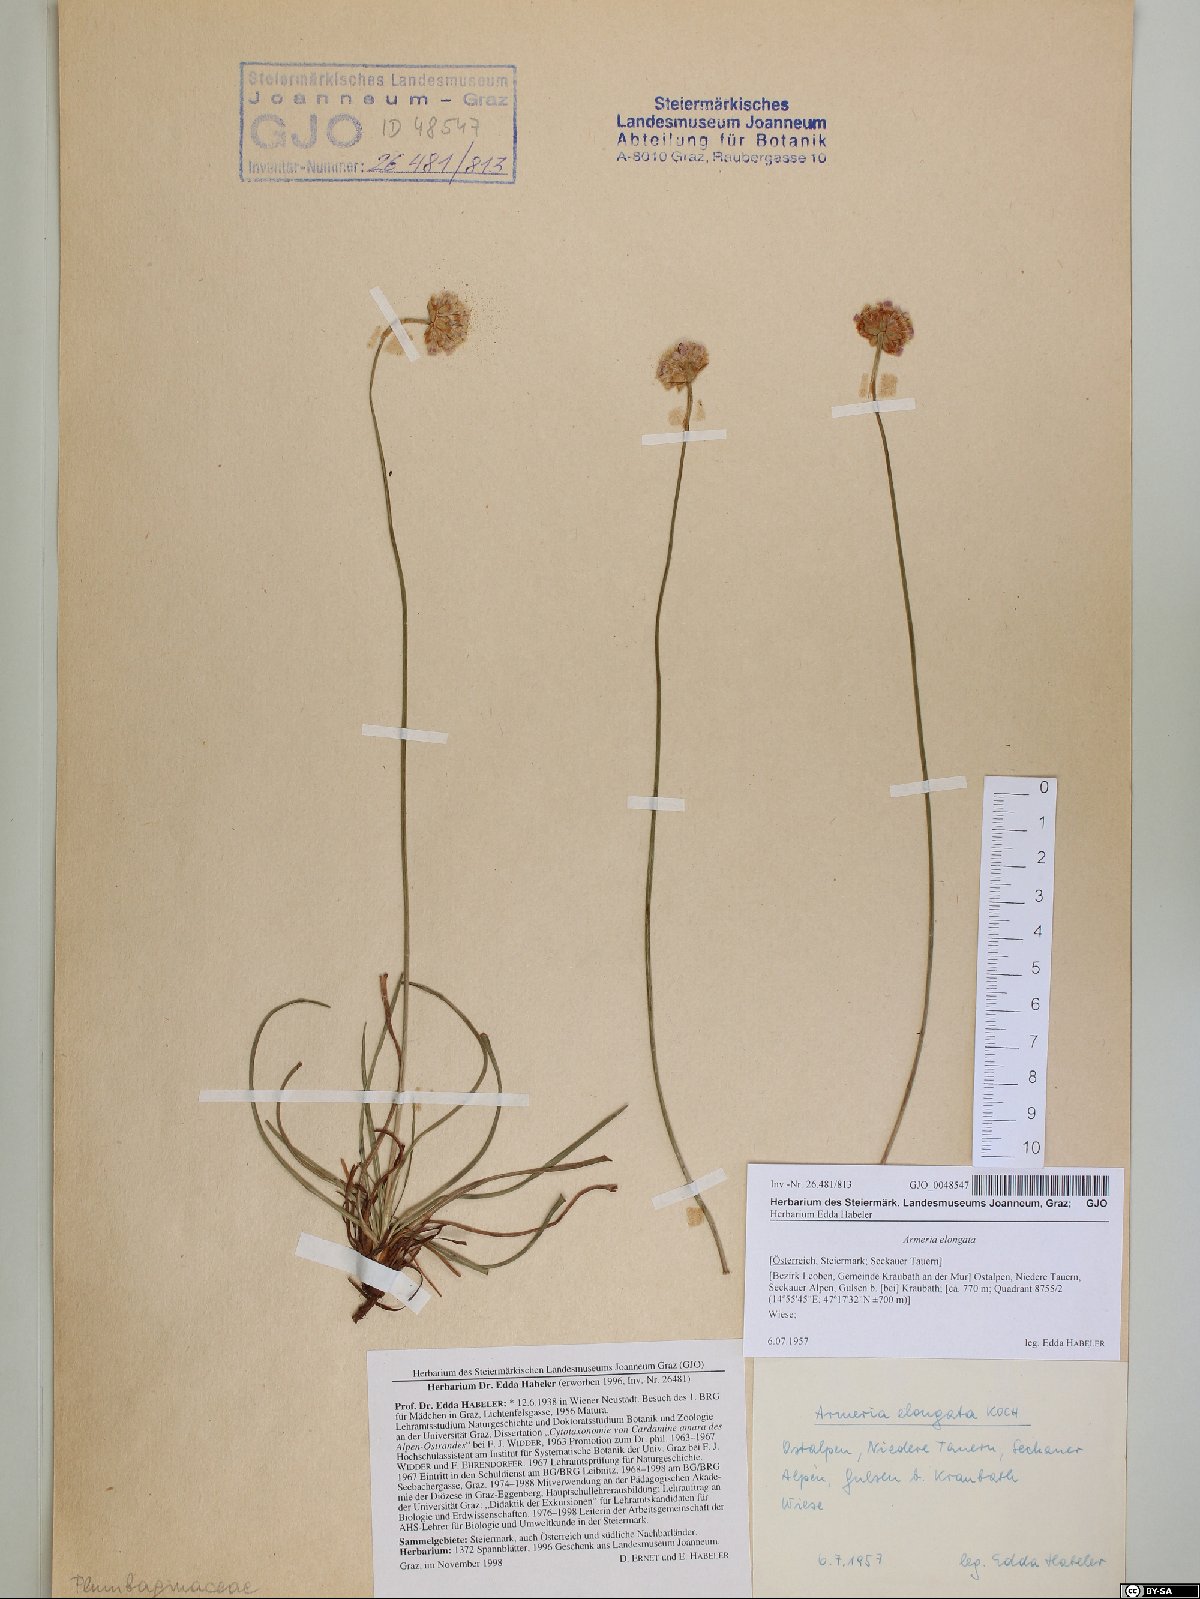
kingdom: Plantae
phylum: Tracheophyta
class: Magnoliopsida
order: Caryophyllales
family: Plumbaginaceae
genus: Armeria
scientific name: Armeria maritima
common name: Thrift
